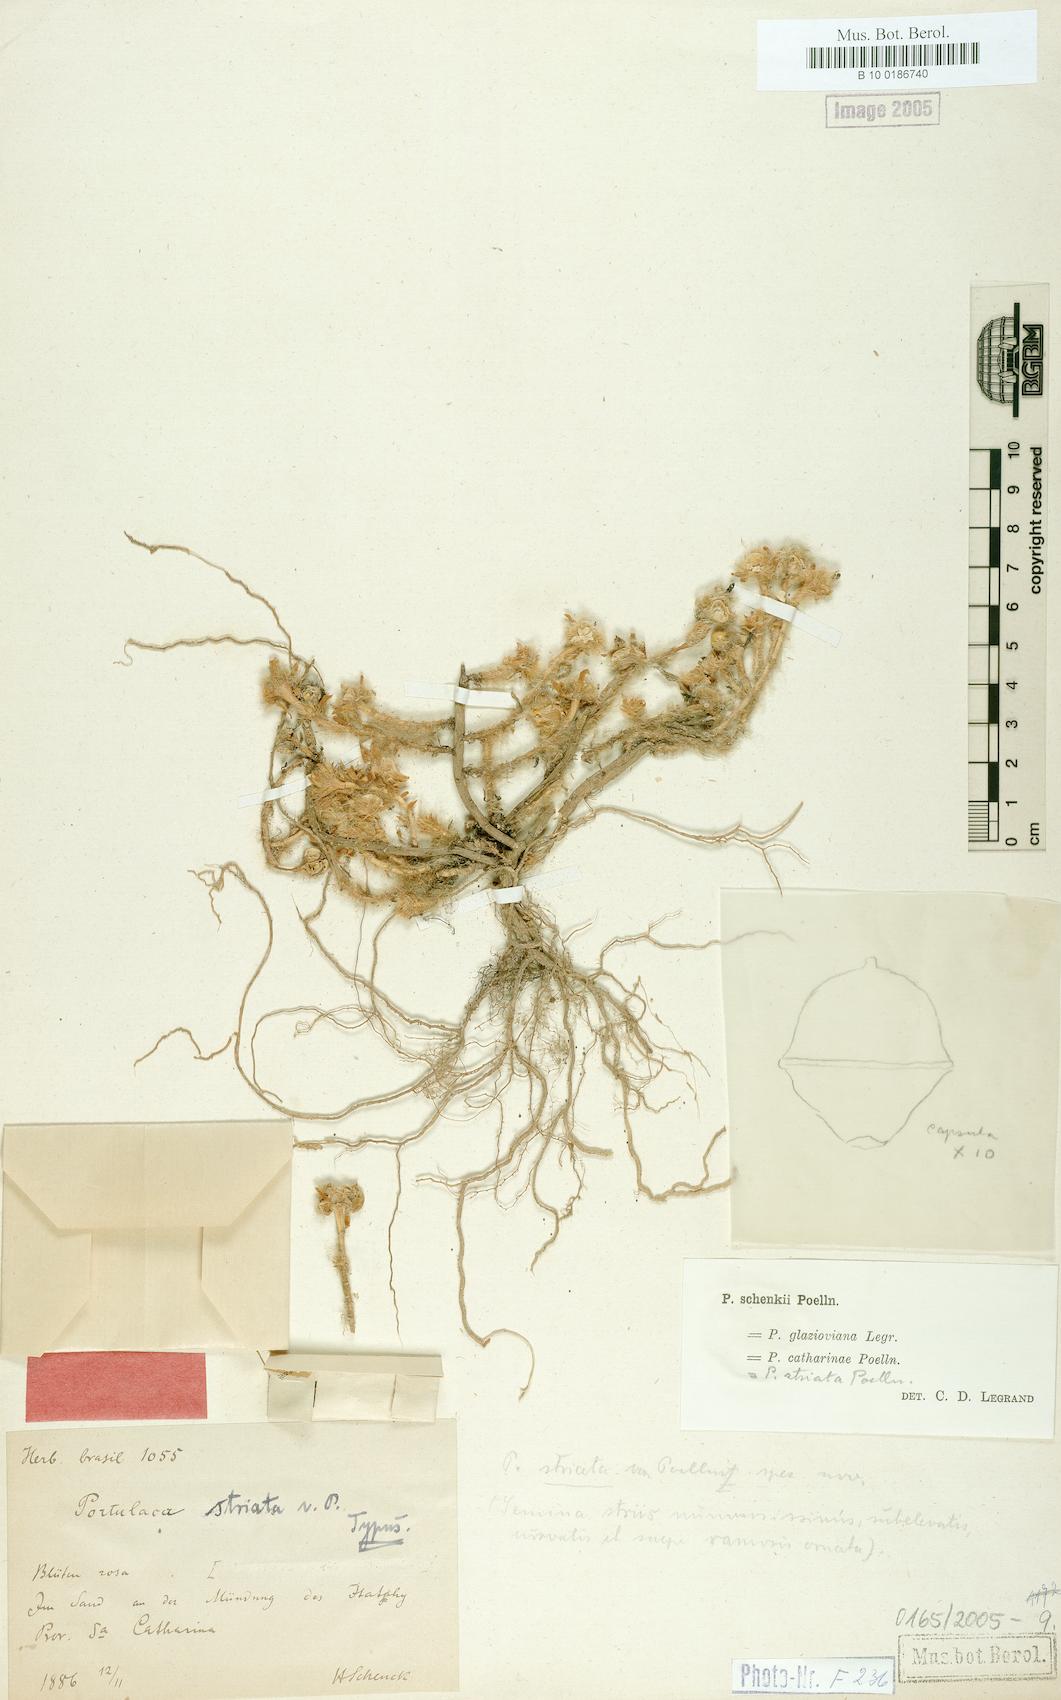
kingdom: Plantae
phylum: Tracheophyta
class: Magnoliopsida
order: Caryophyllales
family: Portulacaceae
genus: Portulaca
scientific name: Portulaca amilis
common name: Paraguayan purslane
